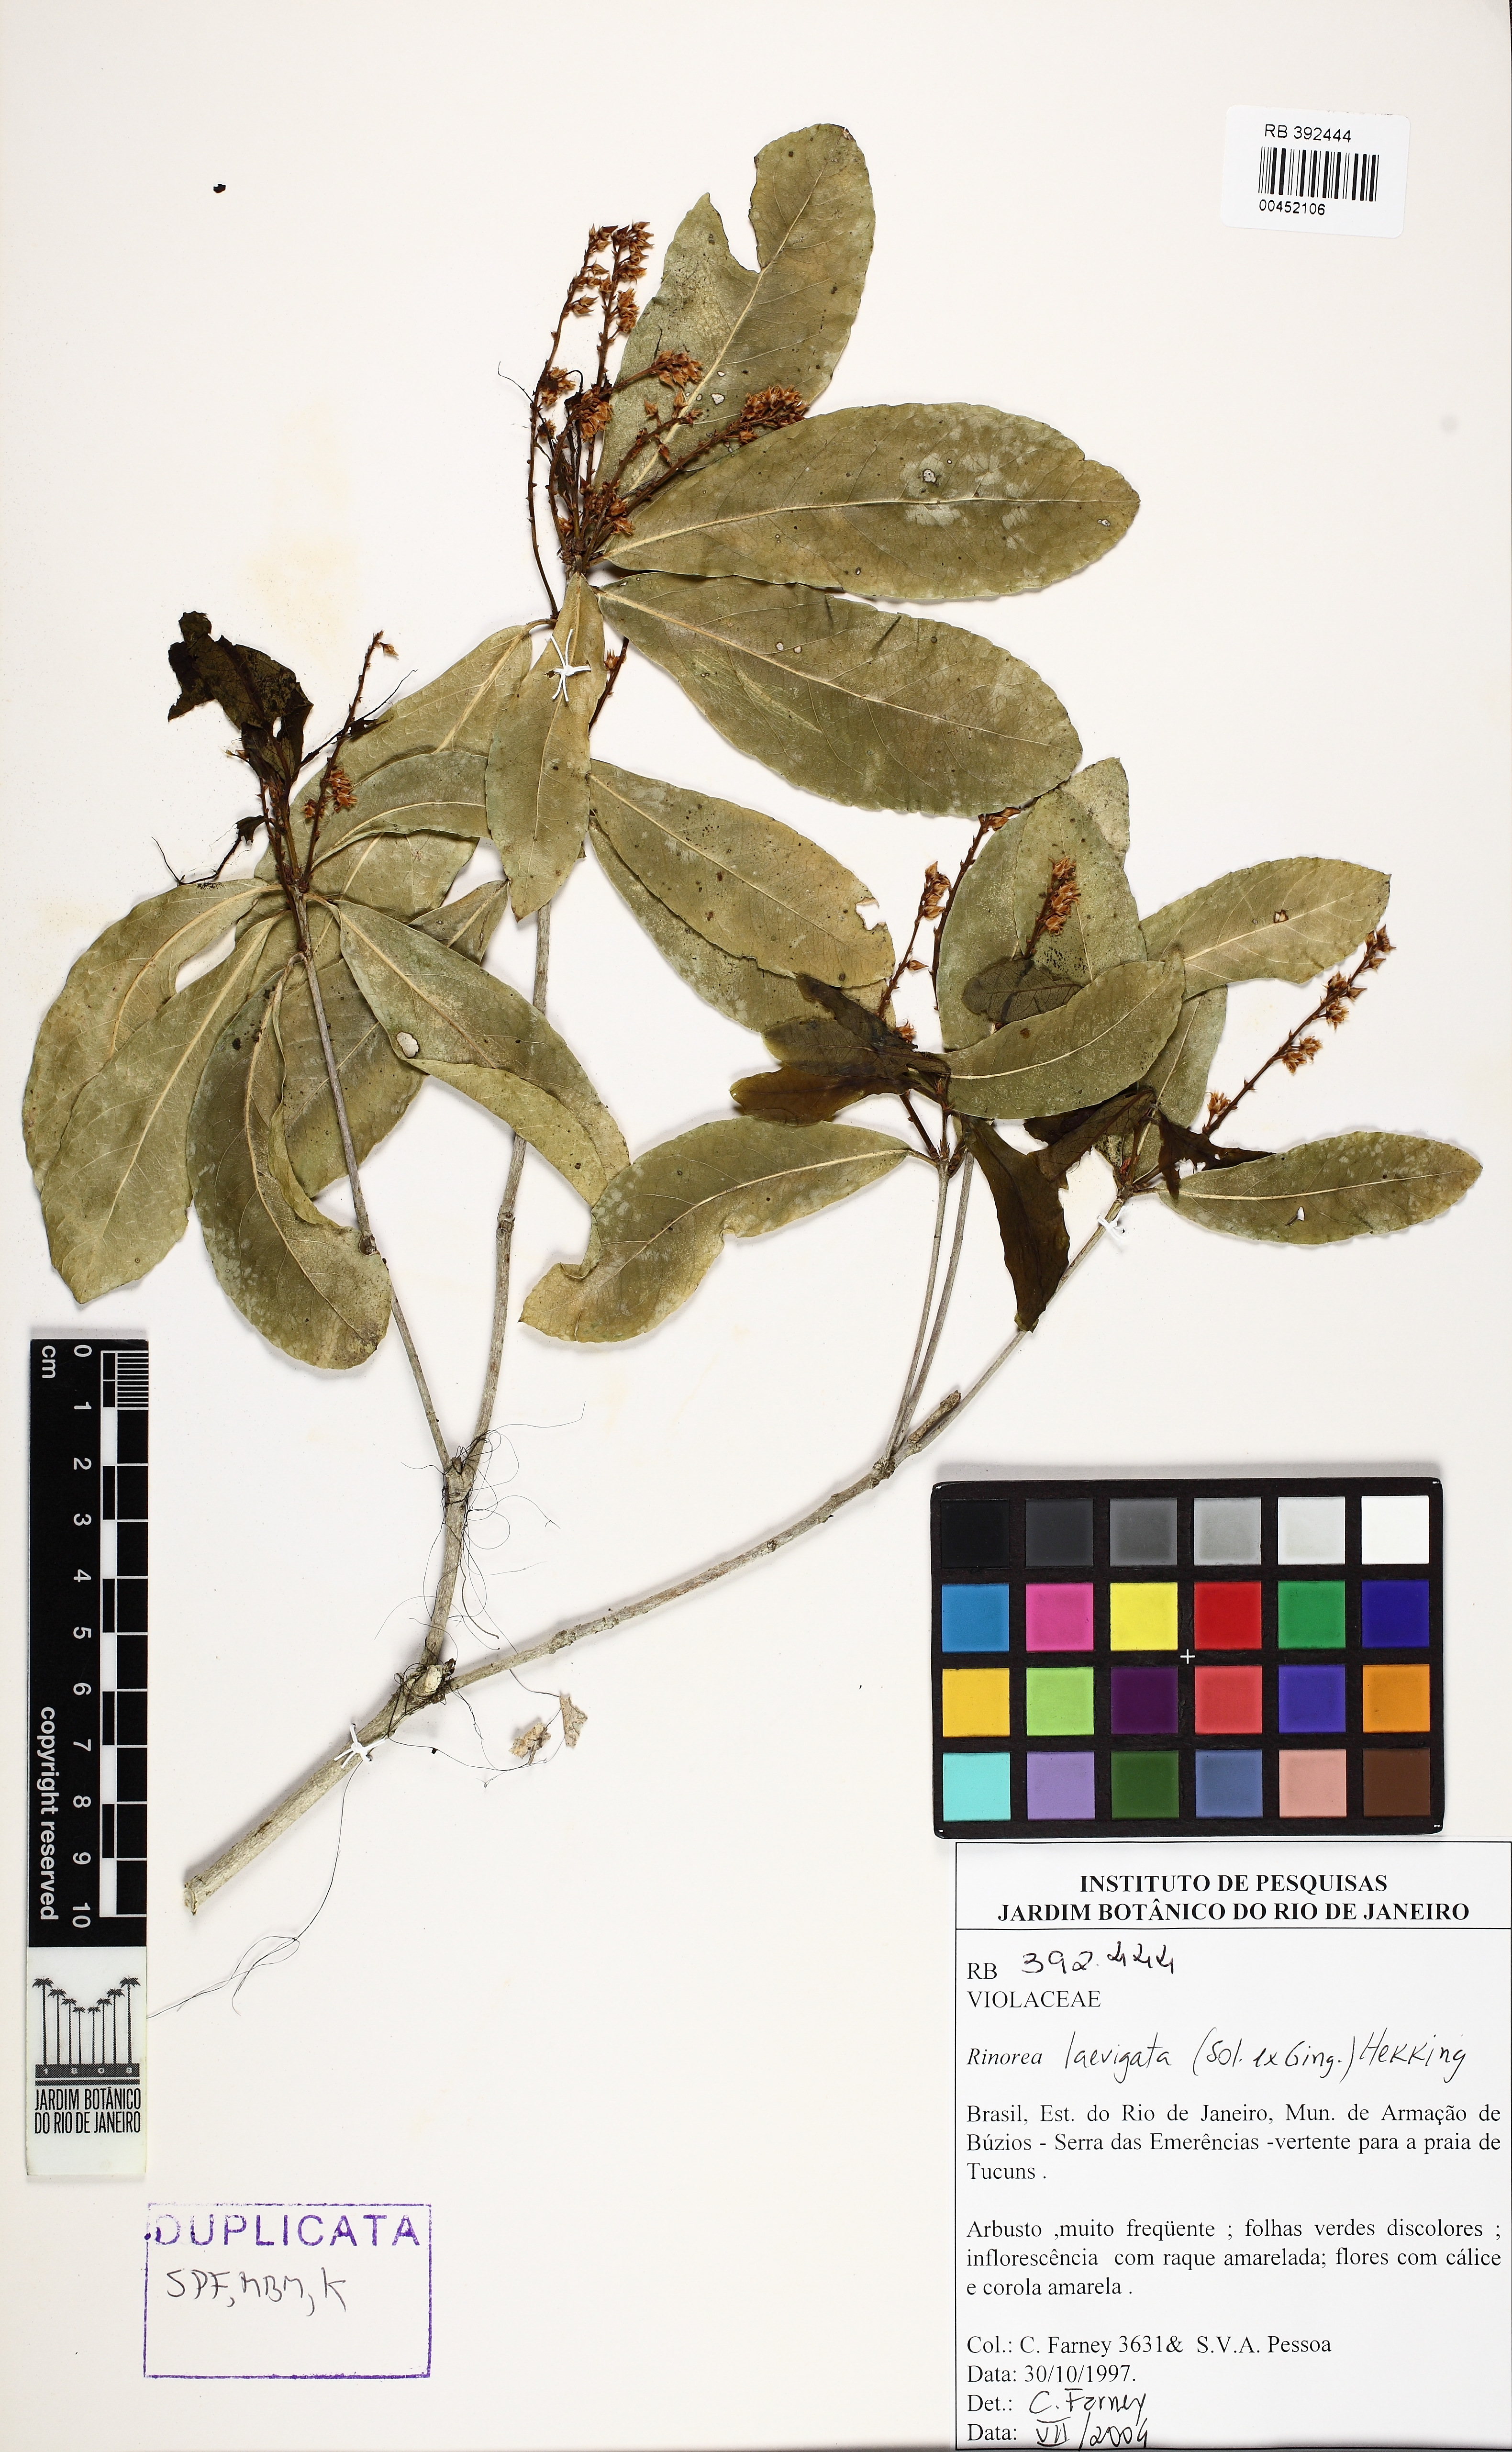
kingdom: Plantae
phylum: Tracheophyta
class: Magnoliopsida
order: Malpighiales
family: Violaceae
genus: Rinorea
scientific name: Rinorea laevigata
